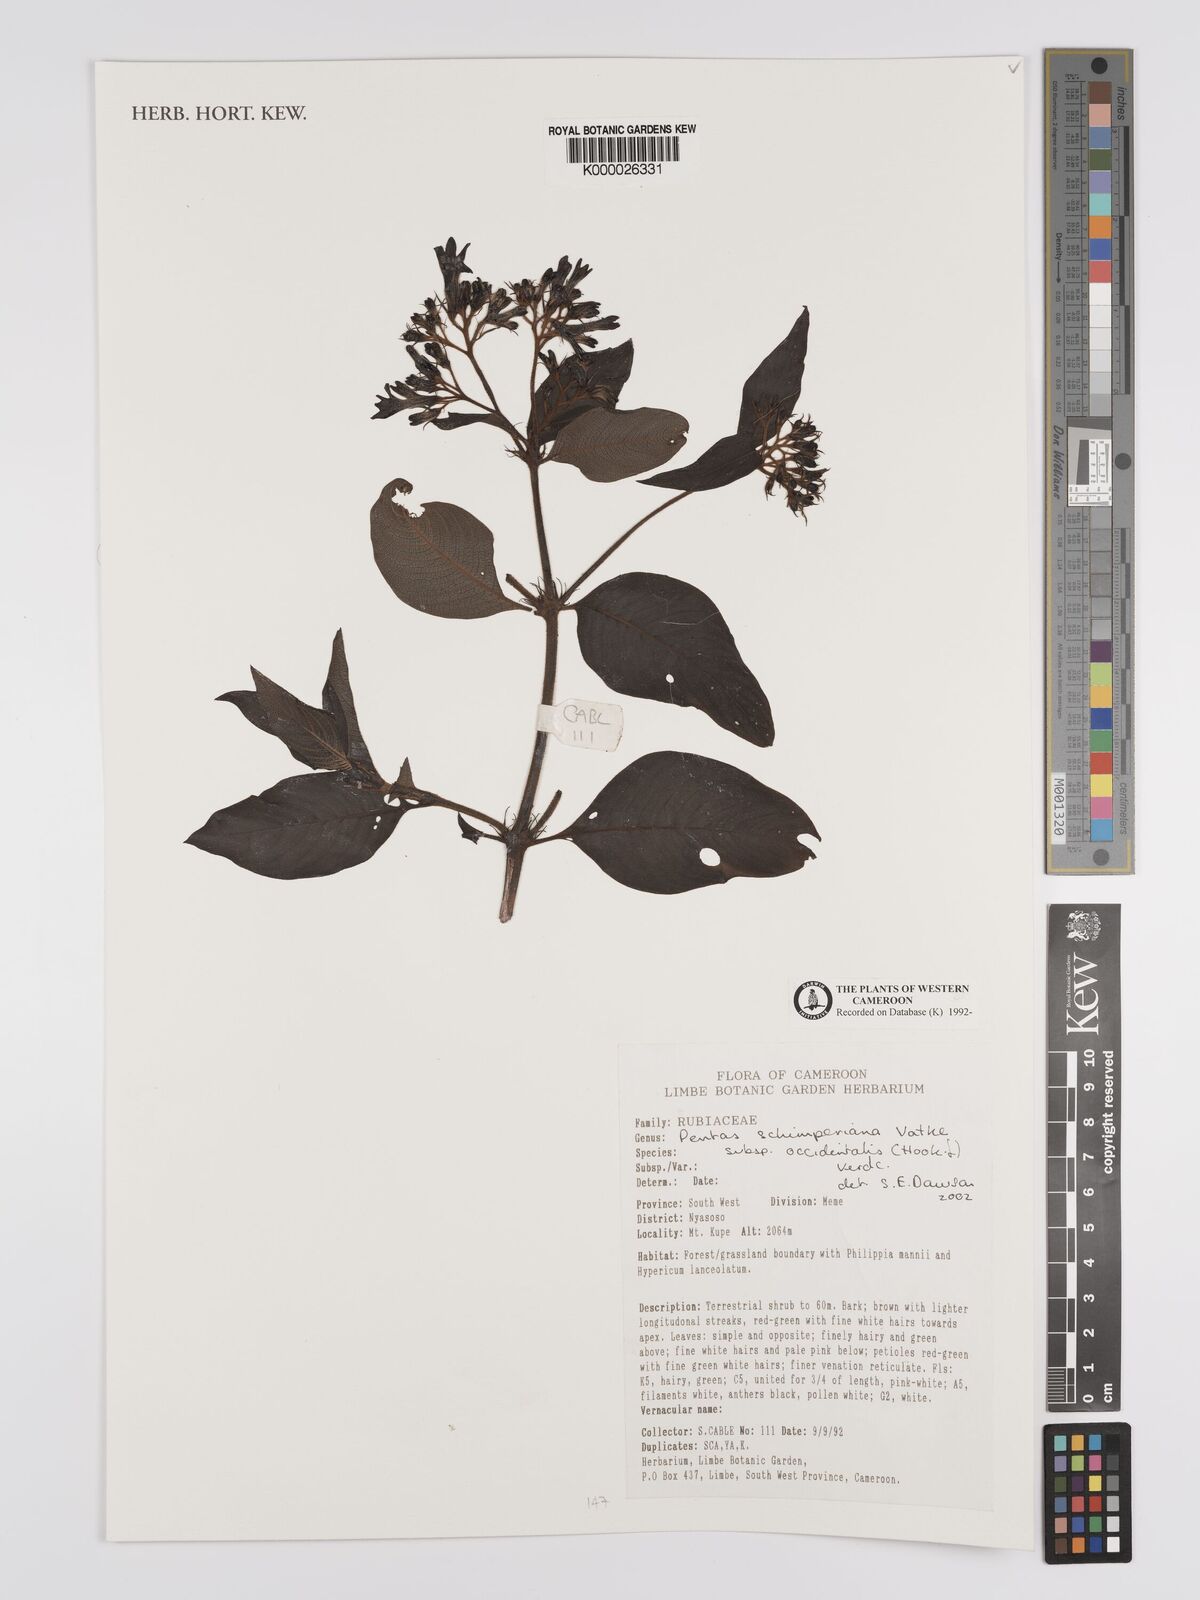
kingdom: Plantae
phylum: Tracheophyta
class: Magnoliopsida
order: Gentianales
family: Rubiaceae
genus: Phyllopentas
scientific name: Phyllopentas schimperi
